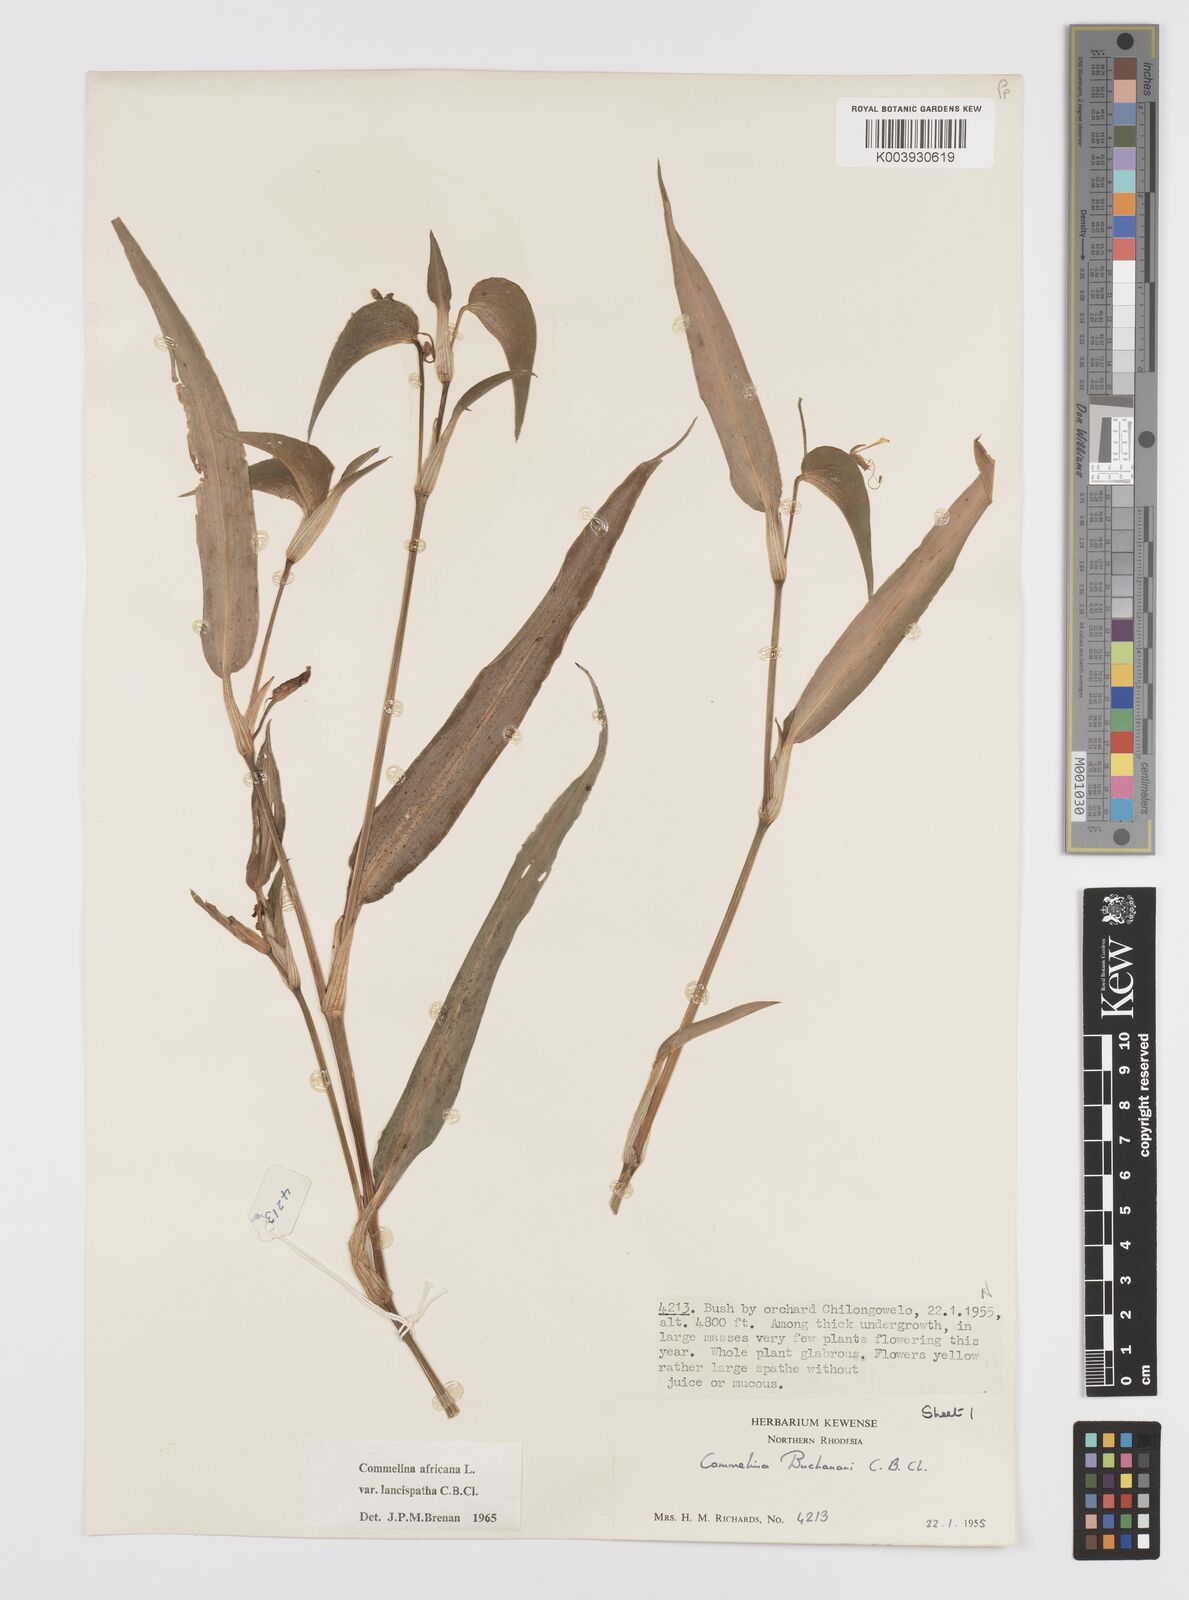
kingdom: Plantae
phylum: Tracheophyta
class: Liliopsida
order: Commelinales
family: Commelinaceae
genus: Commelina
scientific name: Commelina africana
